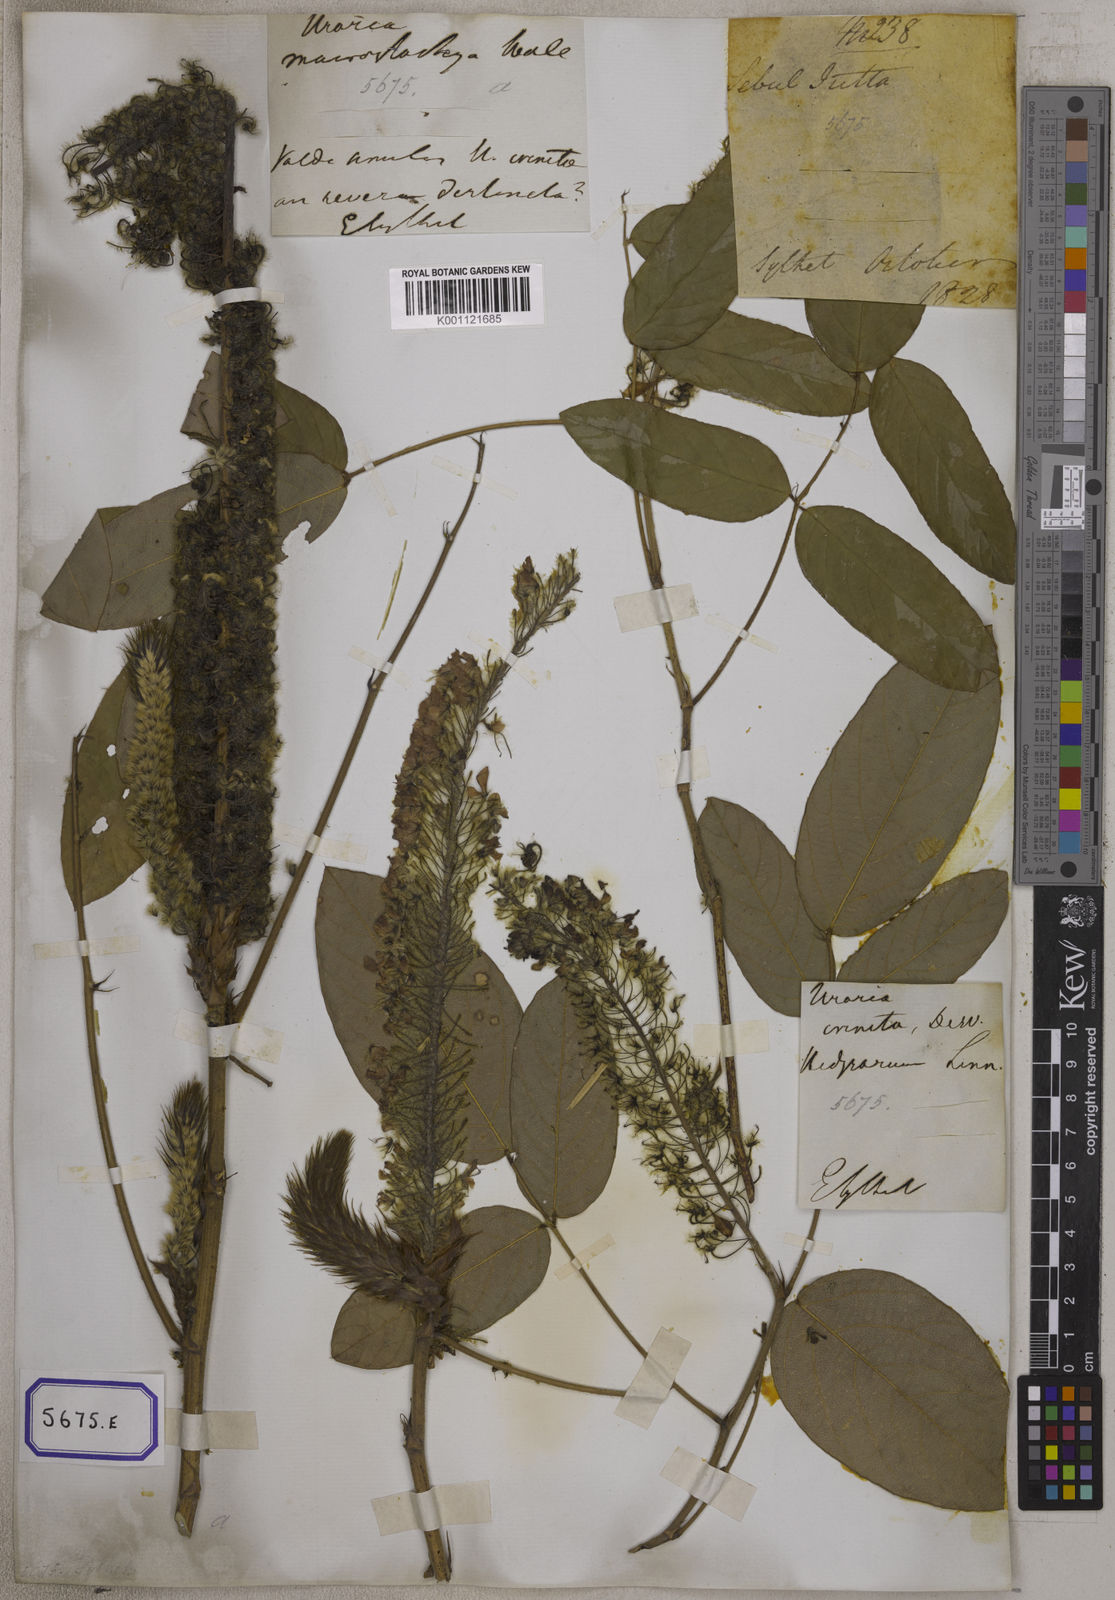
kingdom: Plantae
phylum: Tracheophyta
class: Magnoliopsida
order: Fabales
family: Fabaceae
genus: Uraria
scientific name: Uraria
